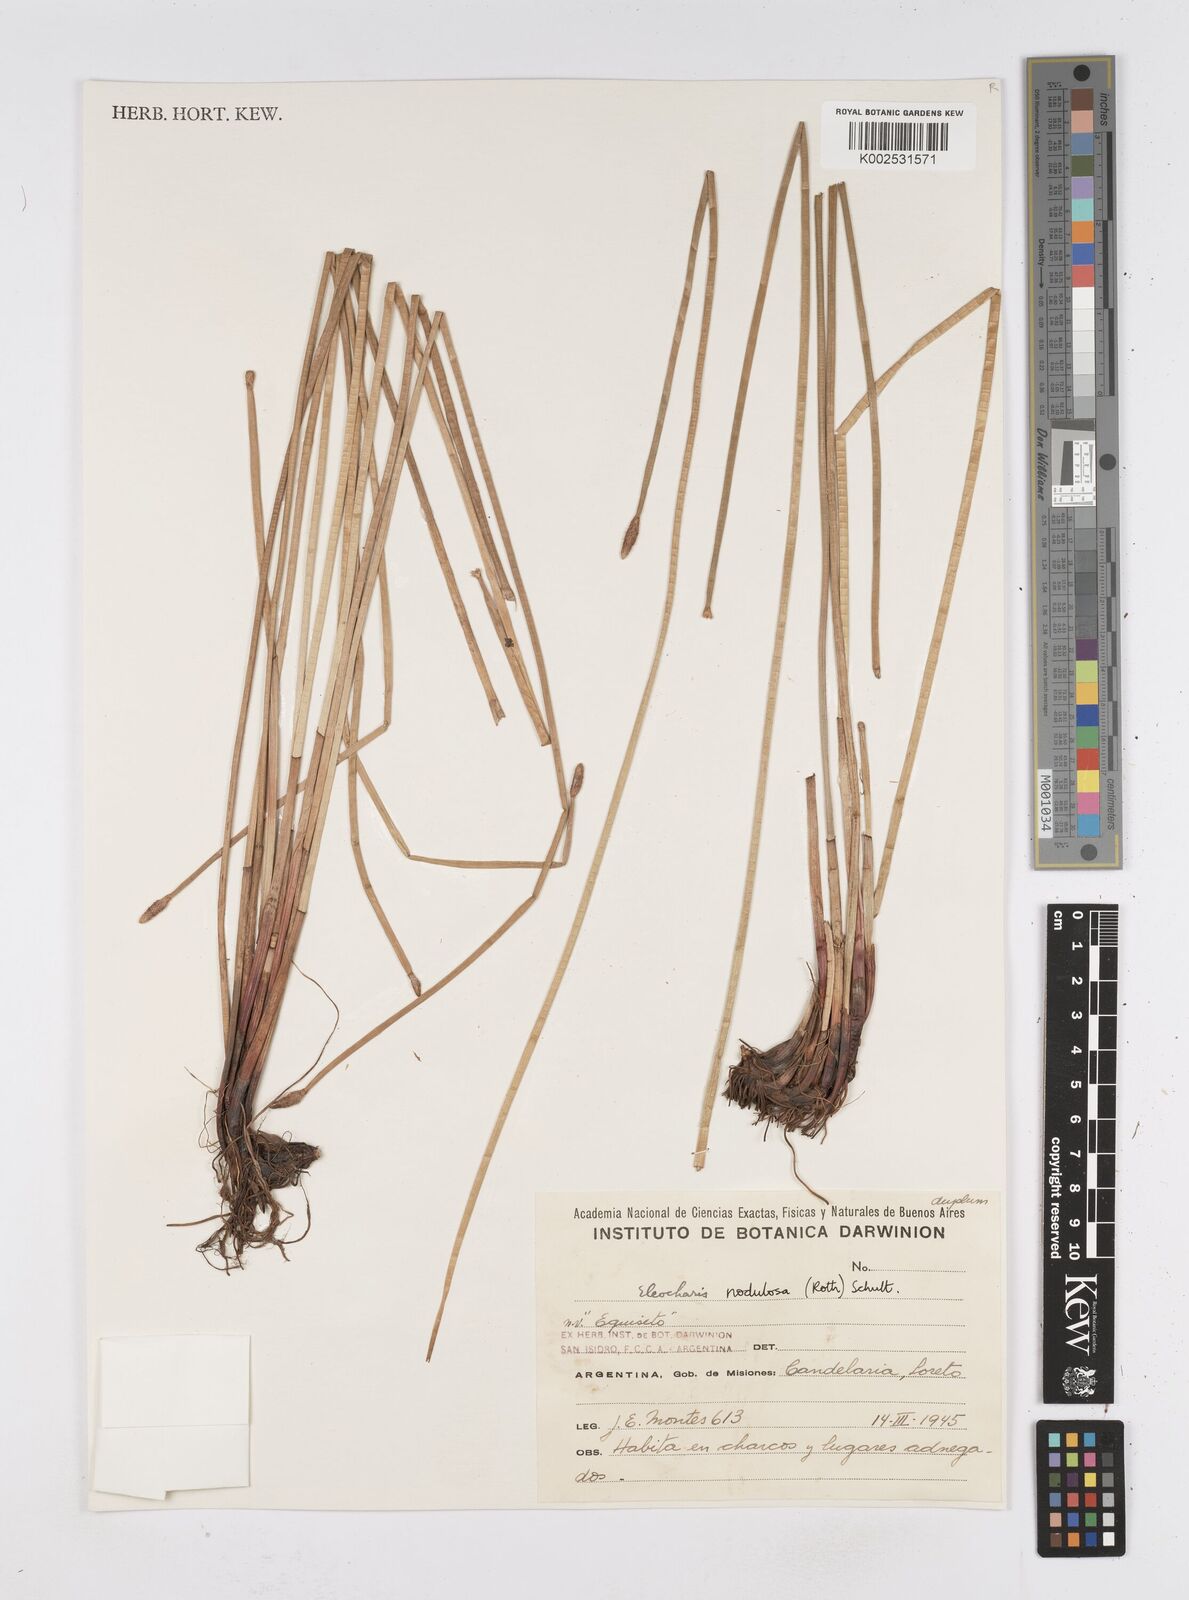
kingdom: Plantae
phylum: Tracheophyta
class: Liliopsida
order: Poales
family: Cyperaceae
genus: Eleocharis
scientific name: Eleocharis montana
